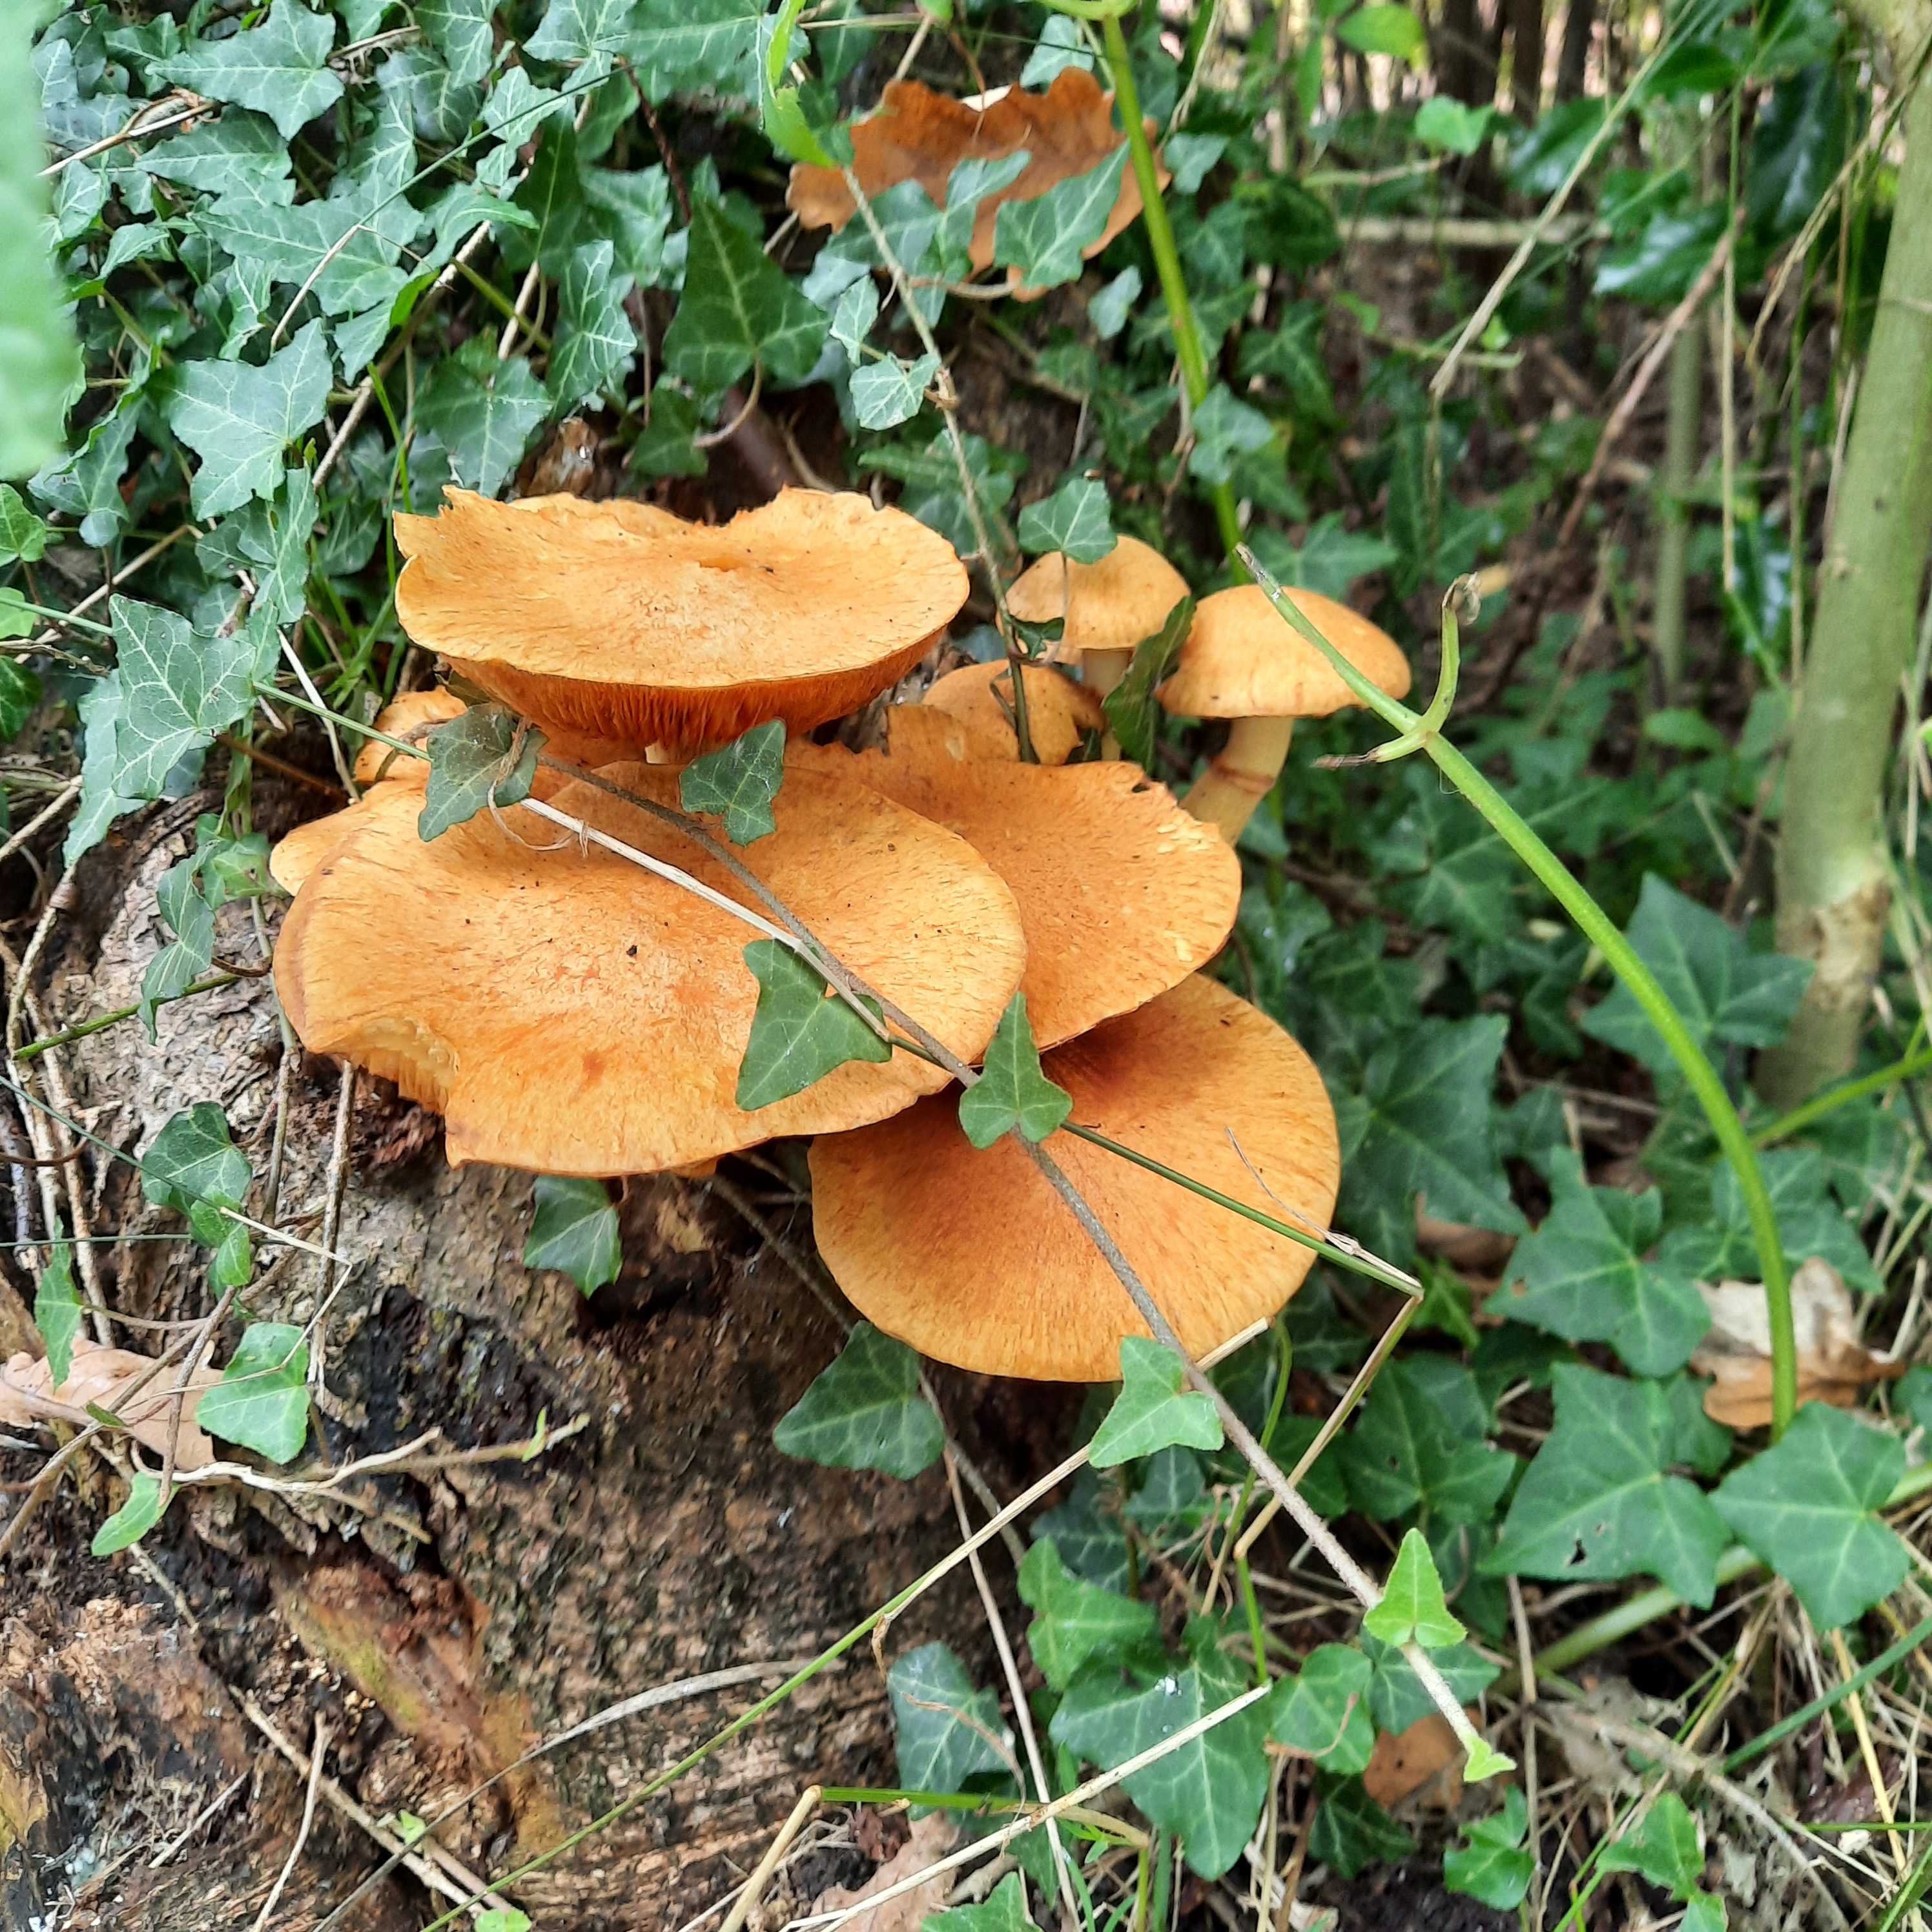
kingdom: Fungi
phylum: Basidiomycota
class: Agaricomycetes
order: Agaricales
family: Hymenogastraceae
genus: Gymnopilus
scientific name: Gymnopilus spectabilis
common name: fibret flammehat
